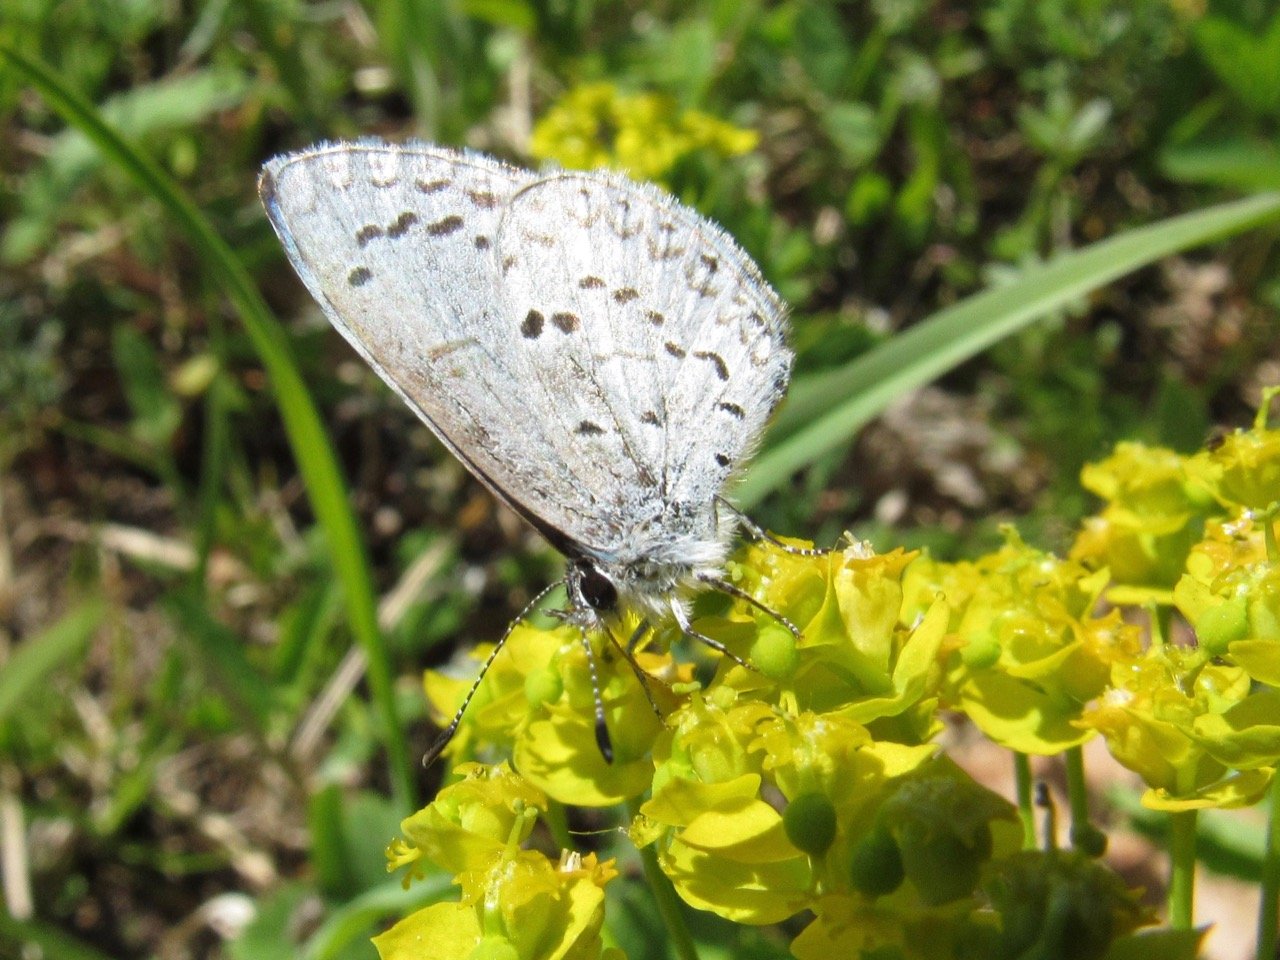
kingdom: Animalia
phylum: Arthropoda
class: Insecta
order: Lepidoptera
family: Lycaenidae
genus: Celastrina
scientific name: Celastrina lucia
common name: Northern Spring Azure
